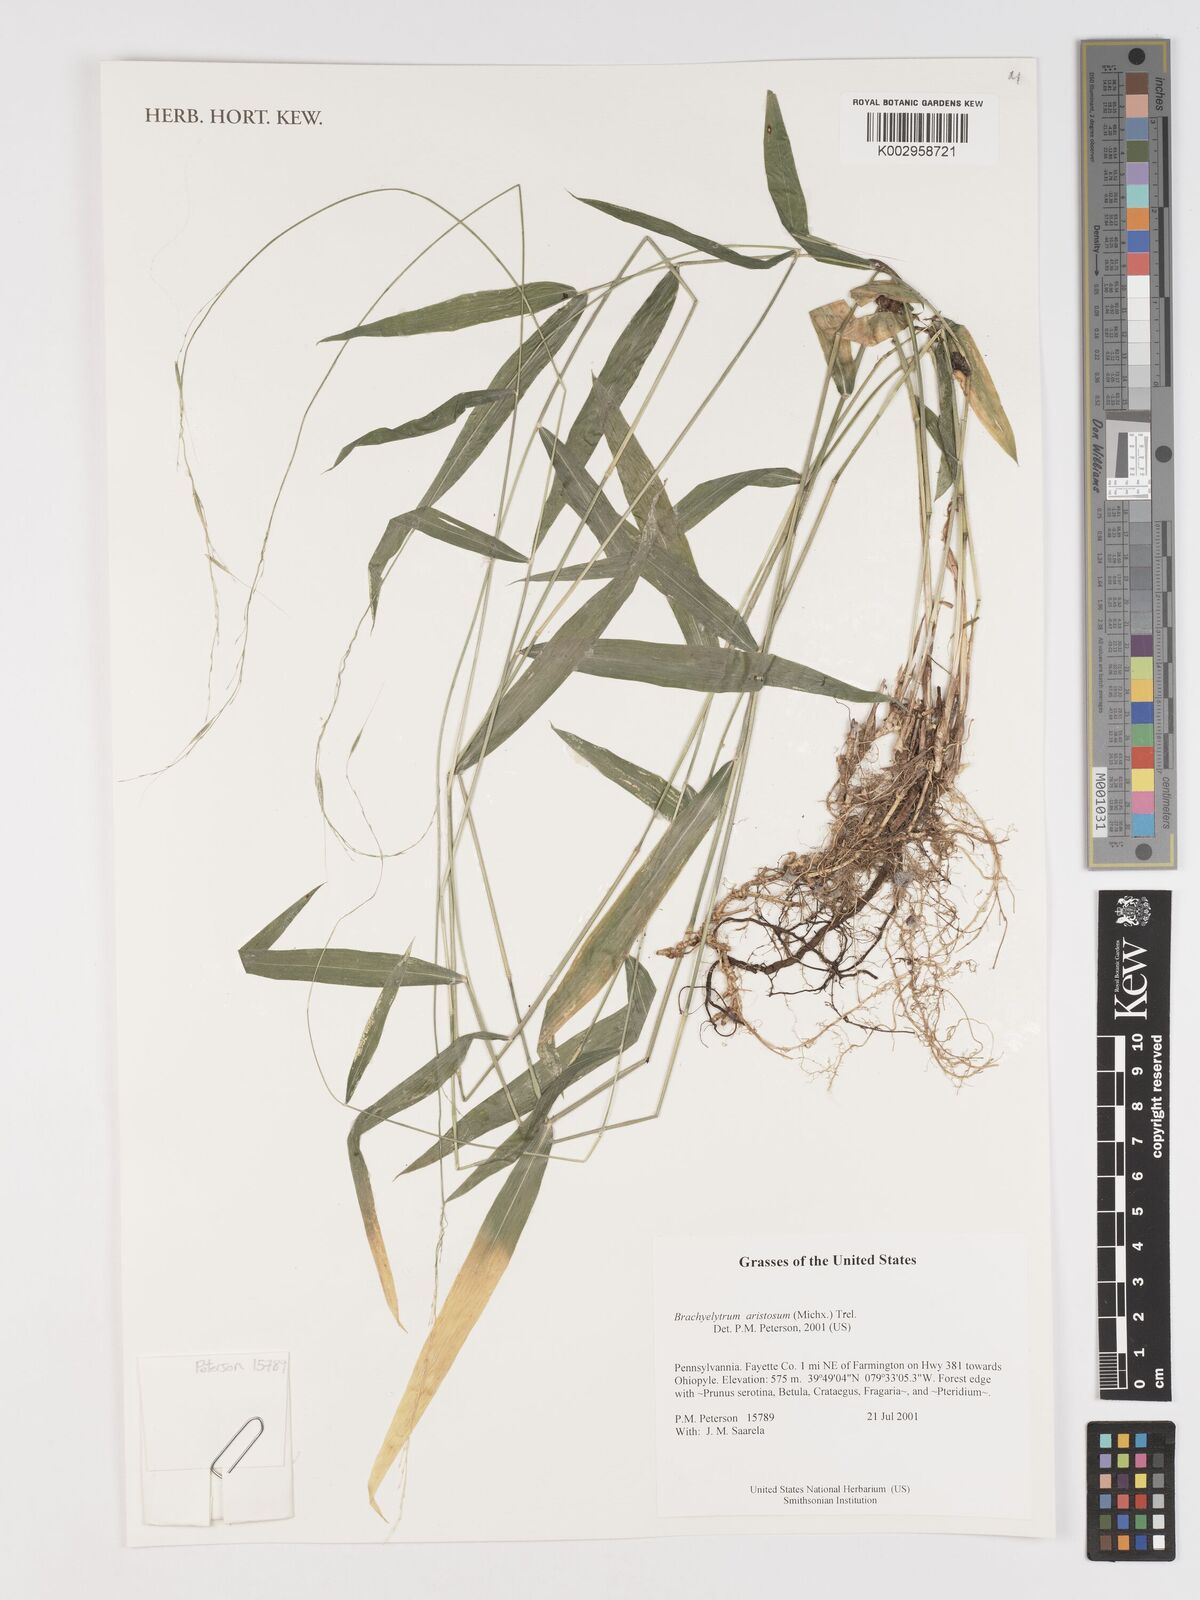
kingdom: Plantae
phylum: Tracheophyta
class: Liliopsida
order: Poales
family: Poaceae
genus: Brachyelytrum
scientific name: Brachyelytrum aristosum
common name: Northern shorthusk
